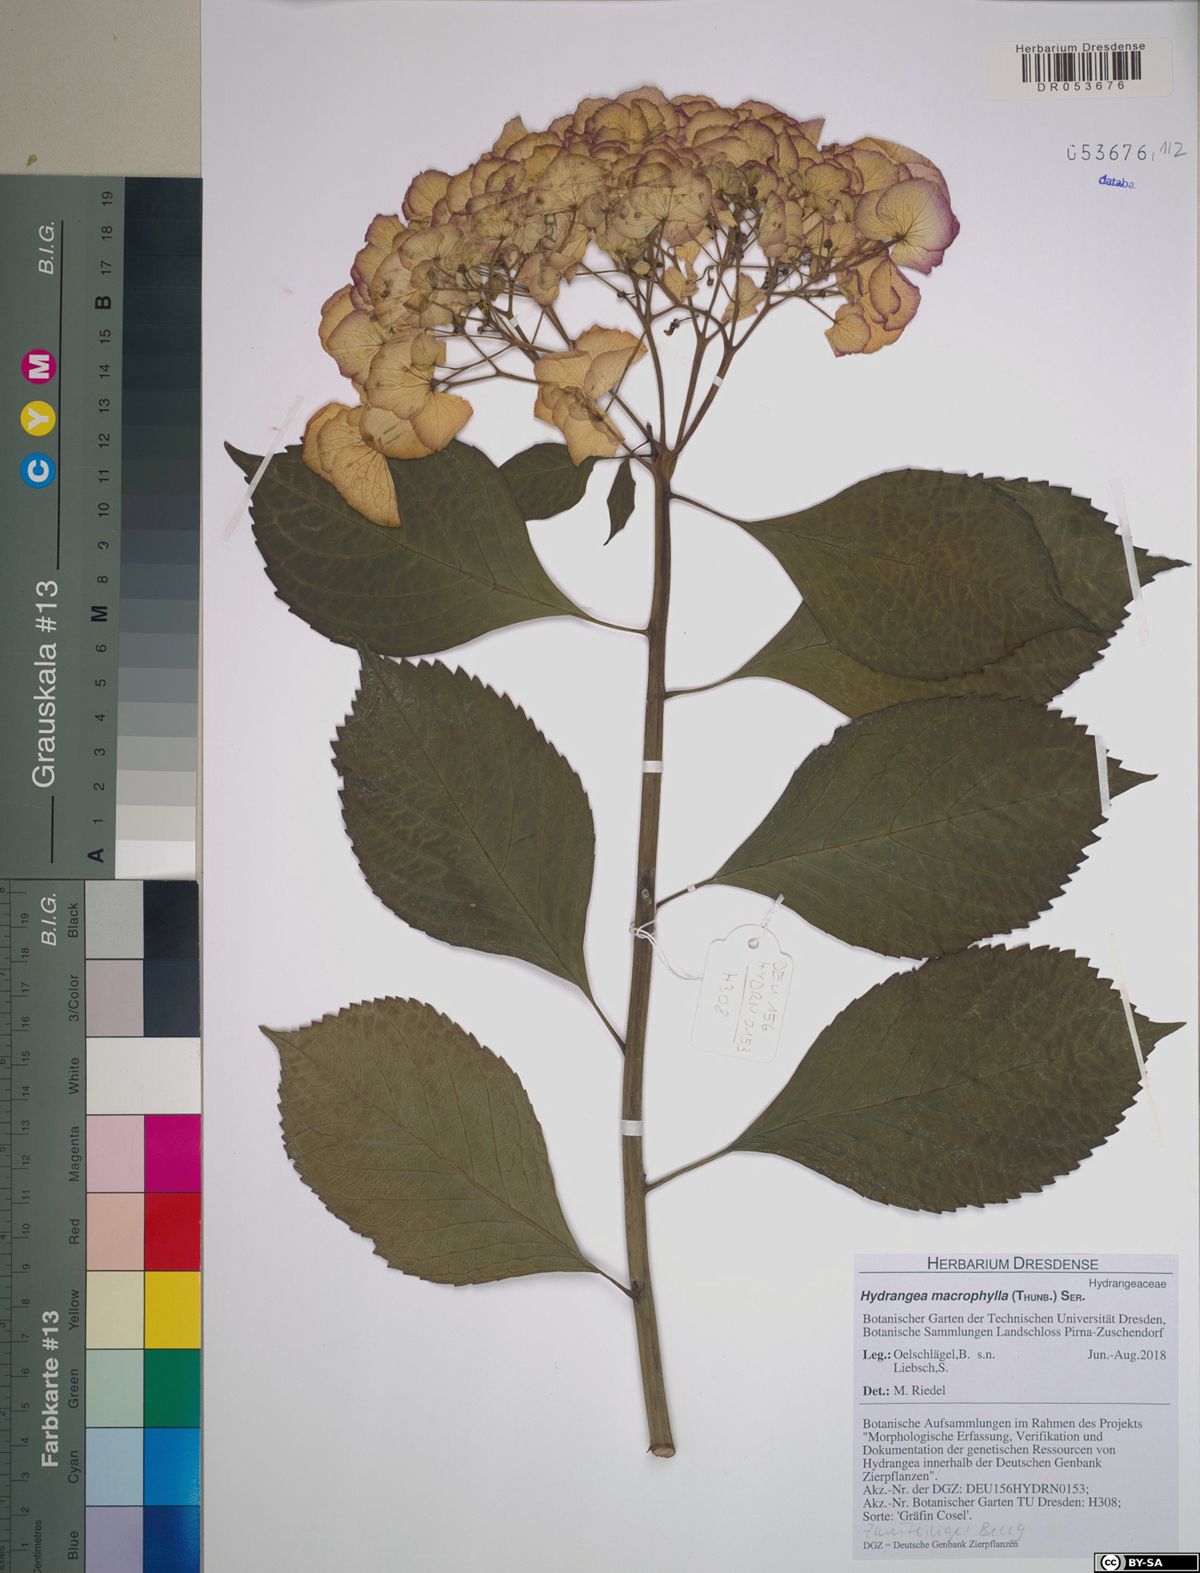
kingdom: Plantae
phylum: Tracheophyta
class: Magnoliopsida
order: Cornales
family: Hydrangeaceae
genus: Hydrangea
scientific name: Hydrangea macrophylla
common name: Hydrangea
